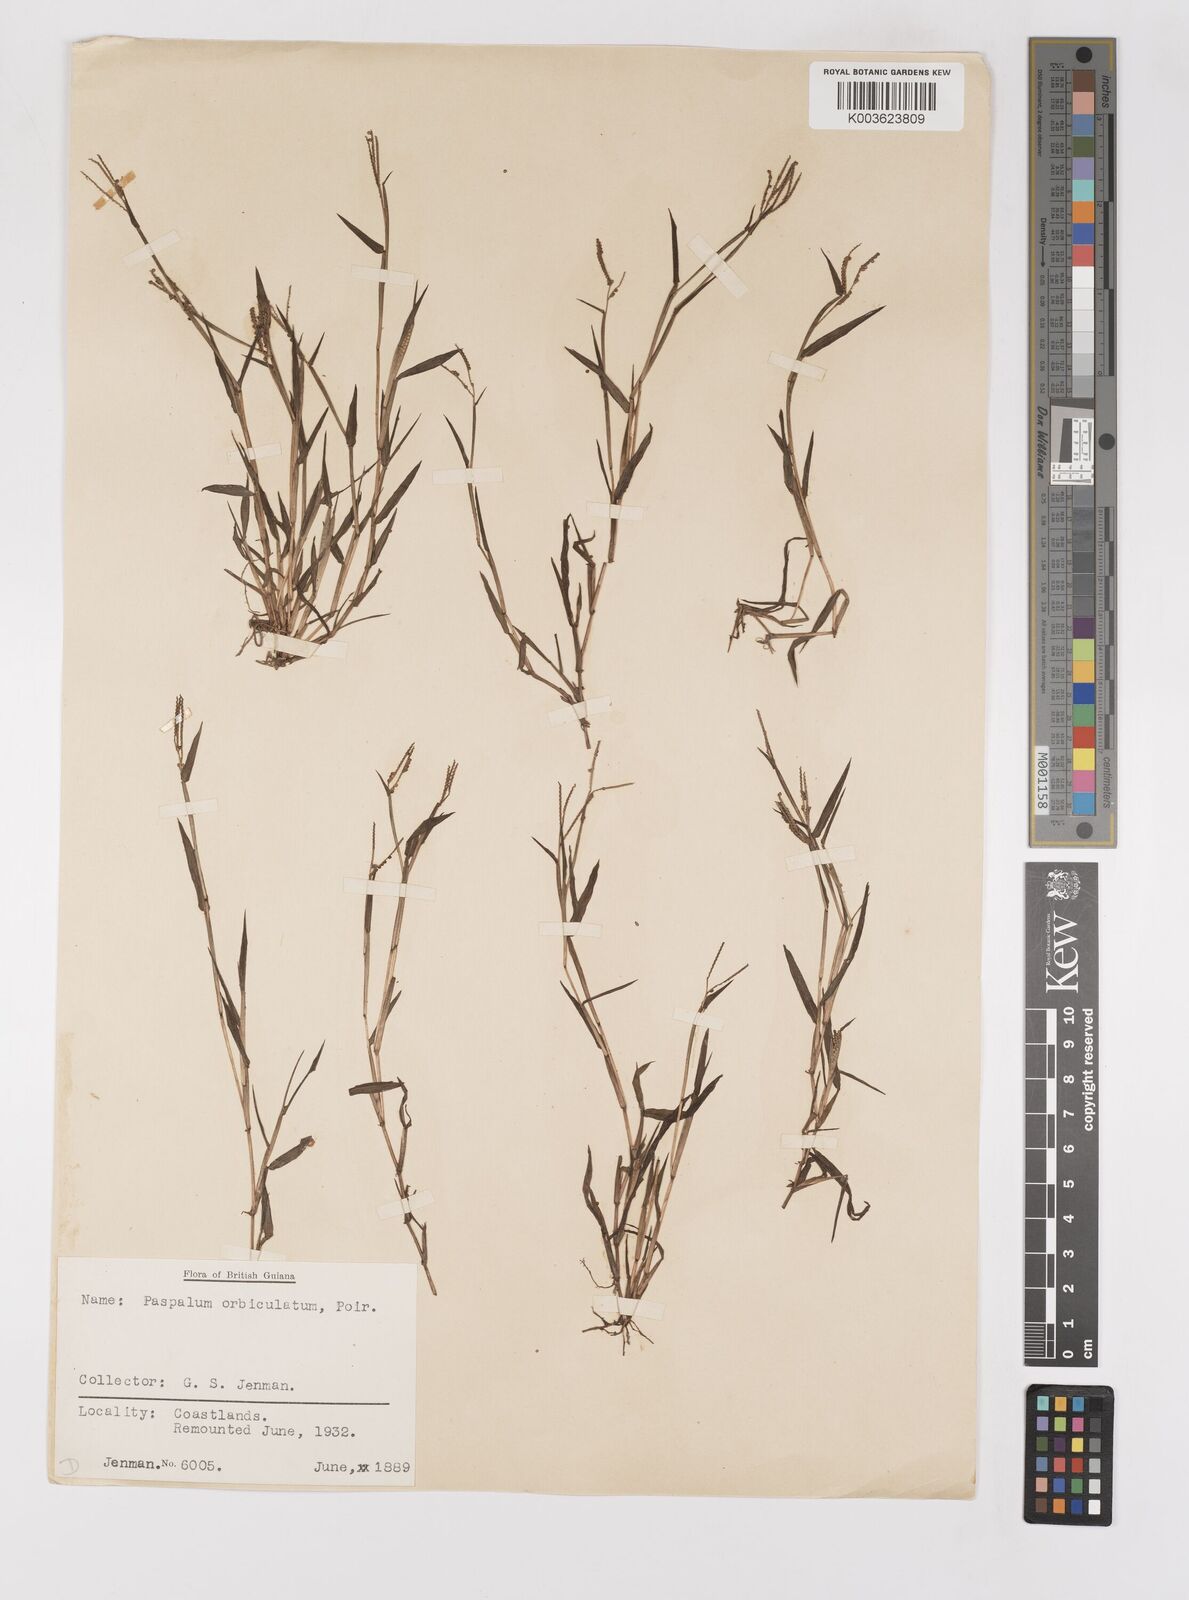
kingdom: Plantae
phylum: Tracheophyta
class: Liliopsida
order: Poales
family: Poaceae
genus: Paspalum
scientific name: Paspalum orbiculatum
